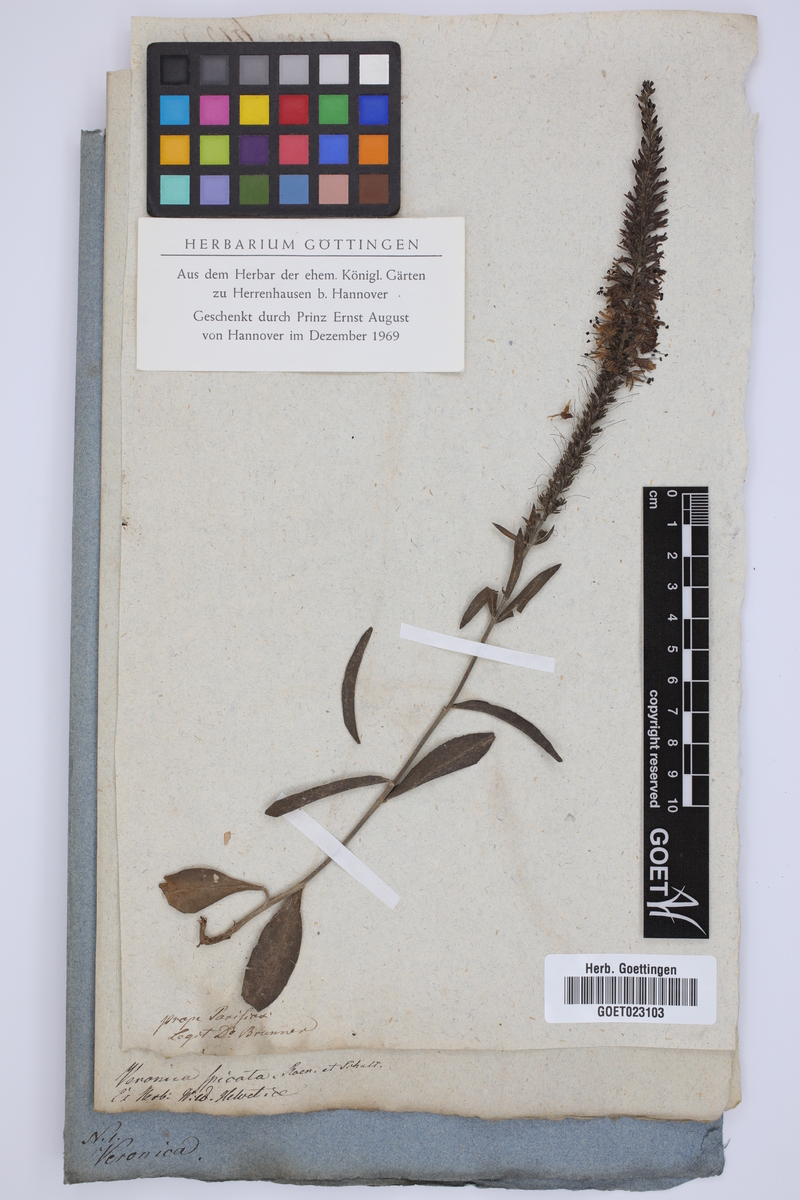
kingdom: Plantae
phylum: Tracheophyta
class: Magnoliopsida
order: Lamiales
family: Plantaginaceae
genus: Veronica
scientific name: Veronica spicata
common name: Spiked speedwell
